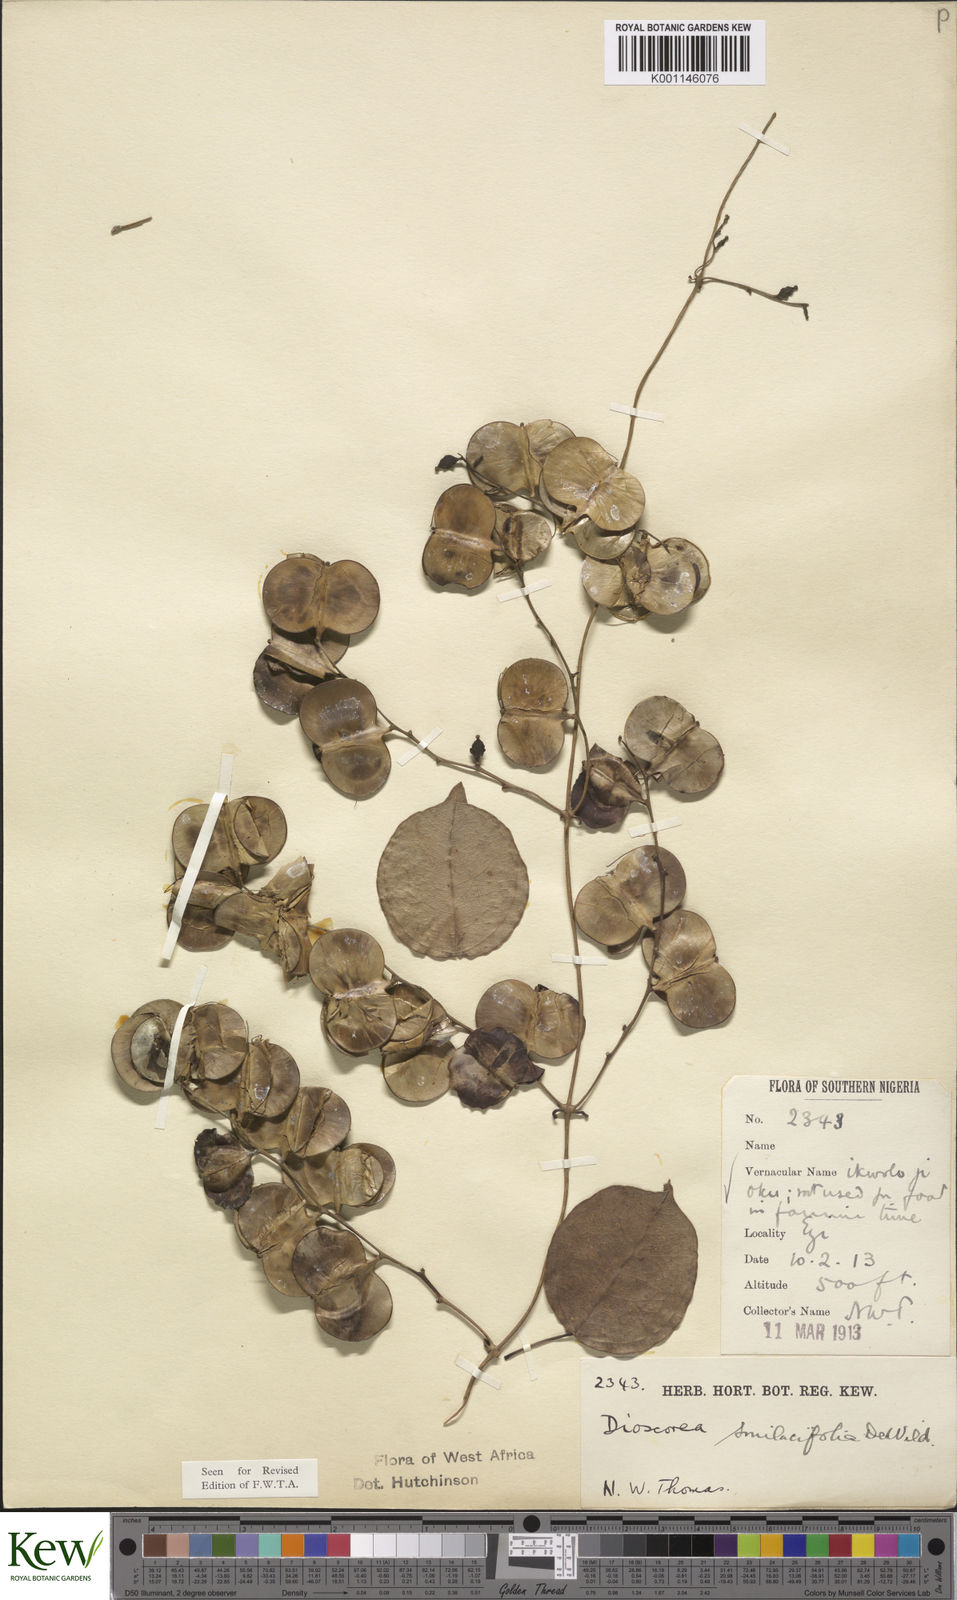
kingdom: Plantae
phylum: Tracheophyta
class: Liliopsida
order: Dioscoreales
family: Dioscoreaceae
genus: Dioscorea
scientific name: Dioscorea smilacifolia
